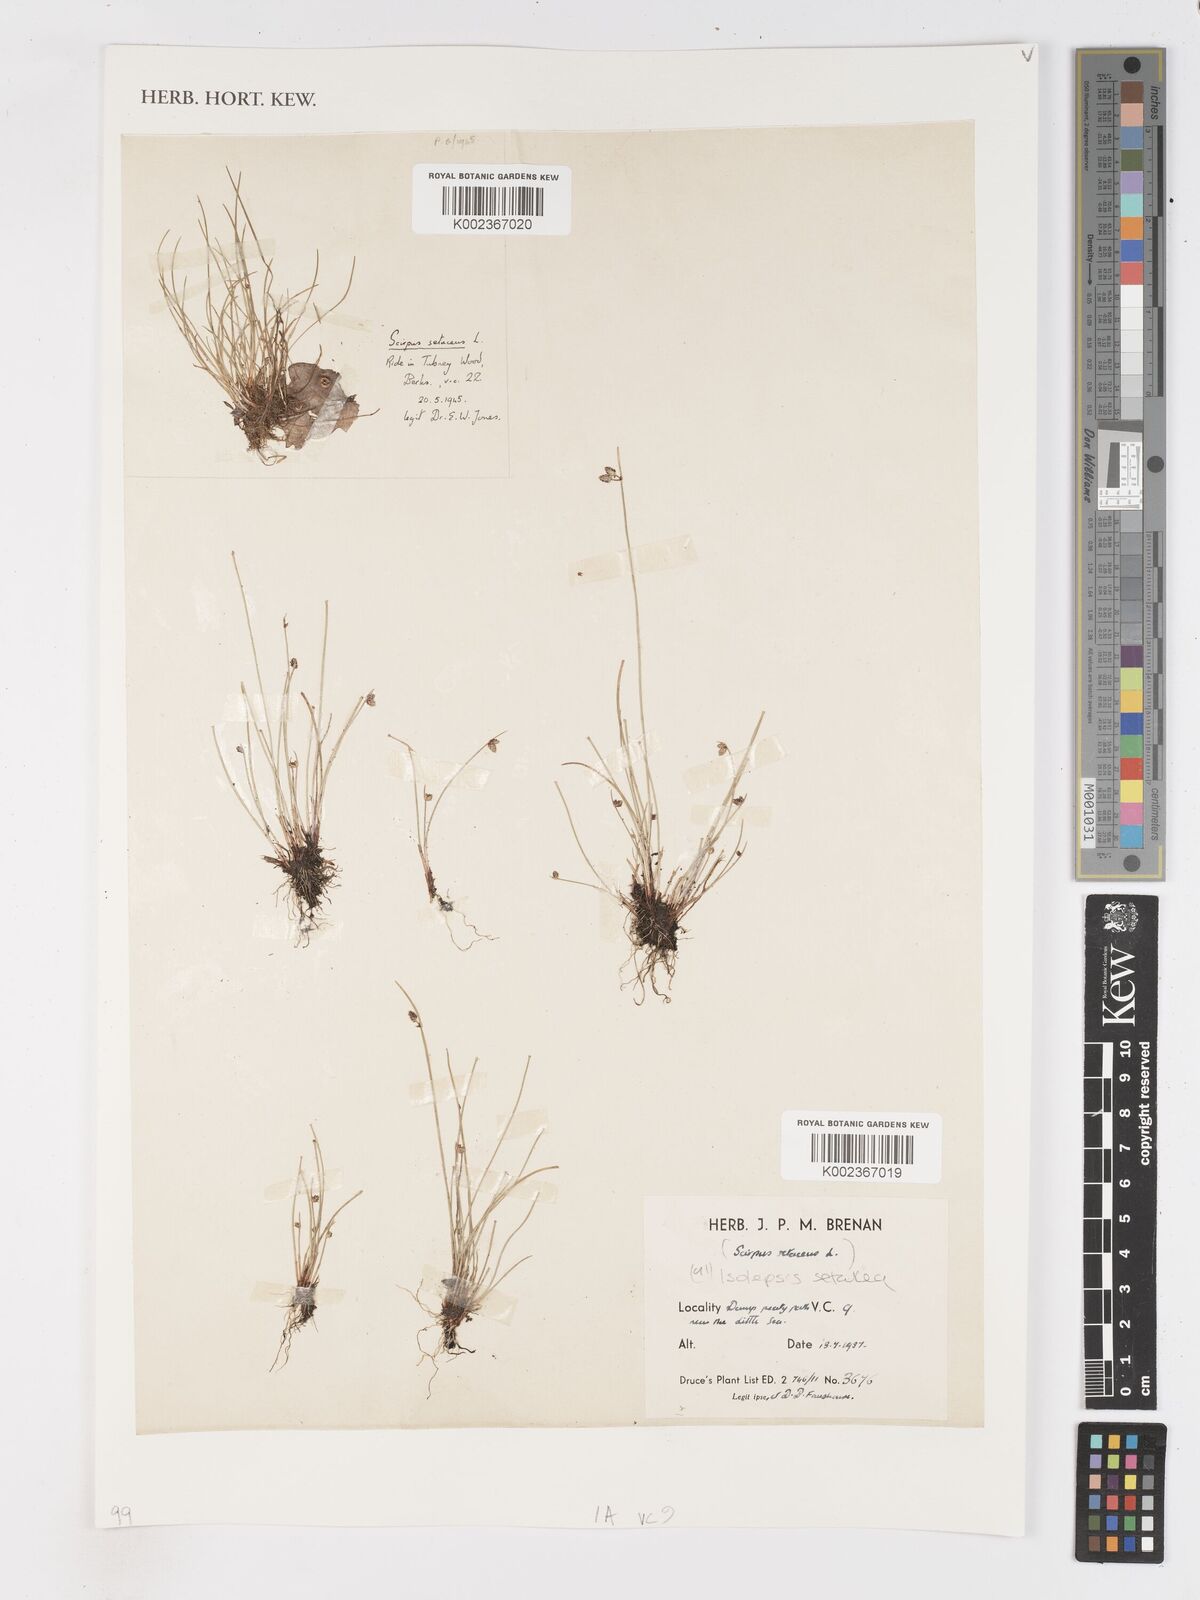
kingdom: Plantae
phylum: Tracheophyta
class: Liliopsida
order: Poales
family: Cyperaceae
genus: Isolepis
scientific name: Isolepis setacea
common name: Bristle club-rush
